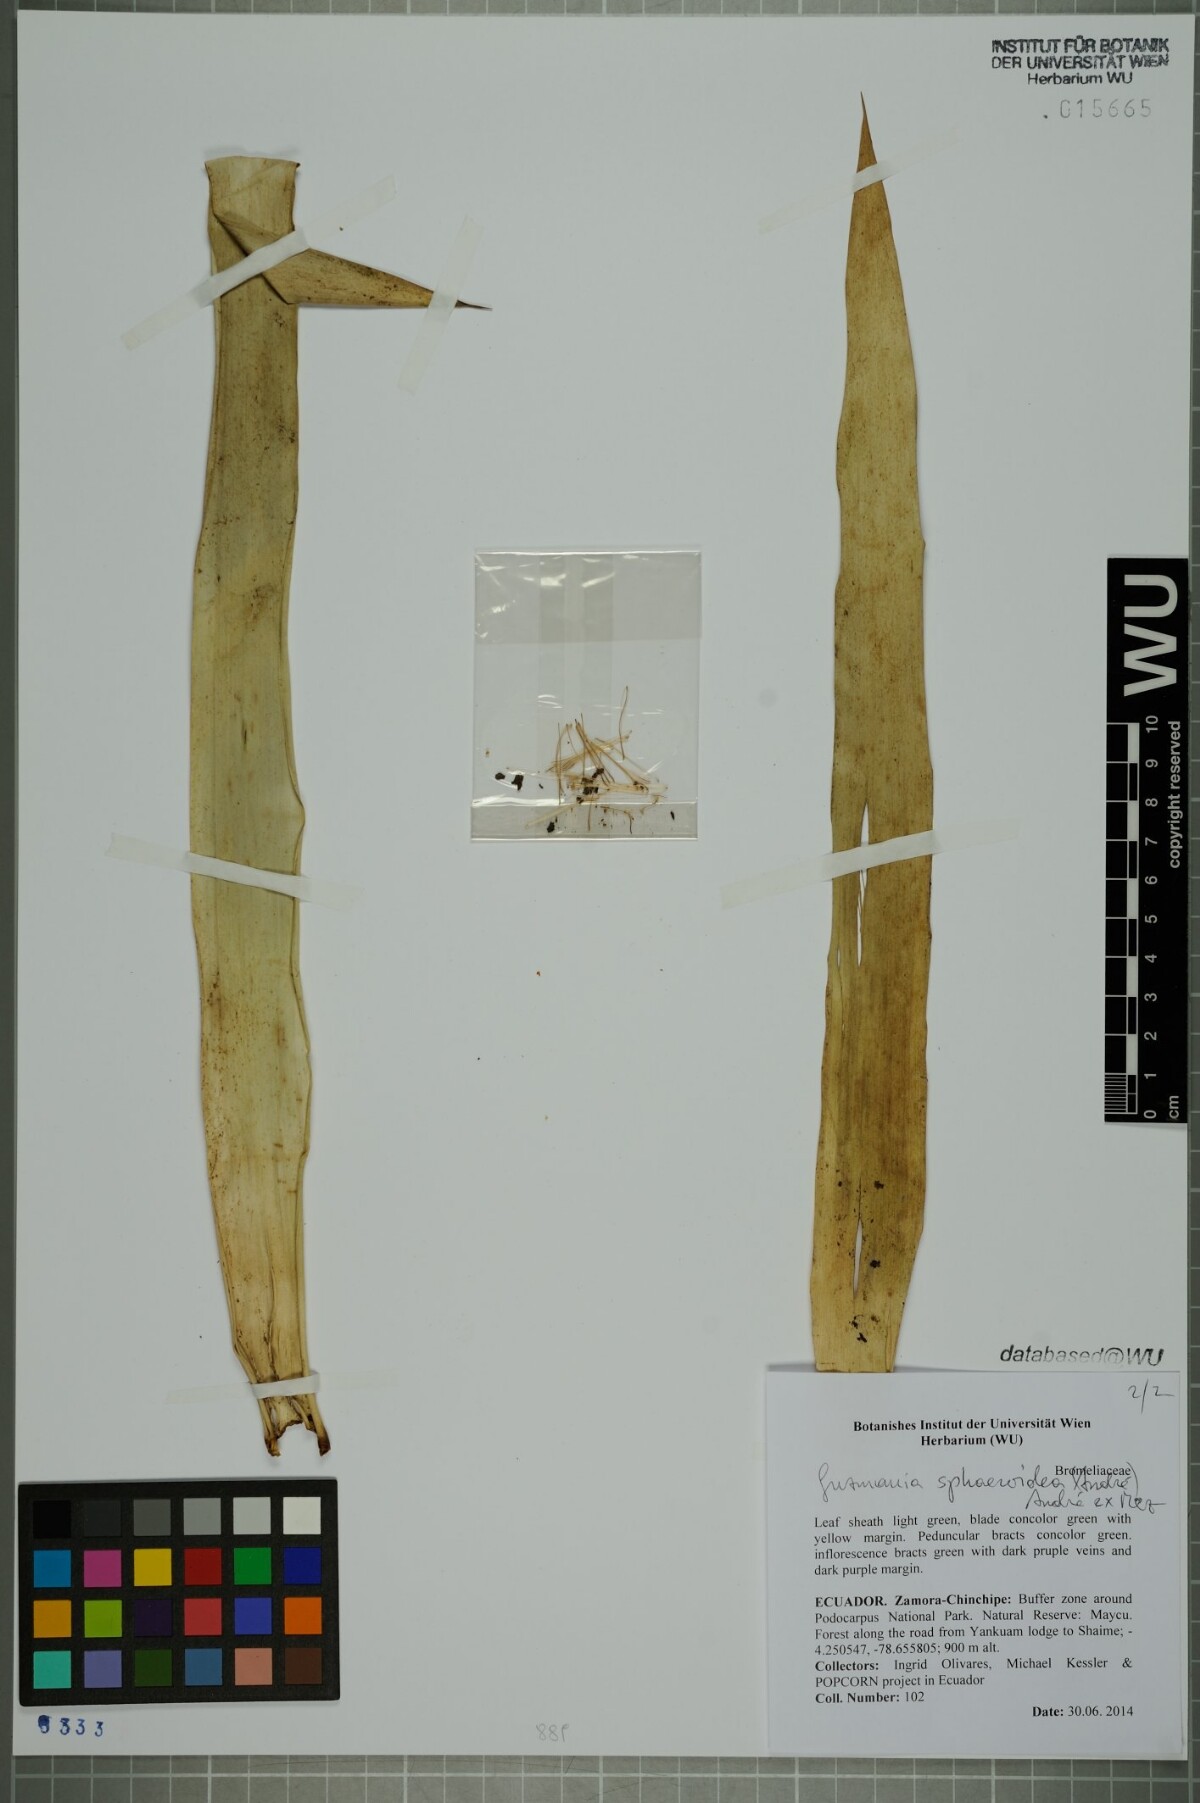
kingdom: Plantae
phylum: Tracheophyta
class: Liliopsida
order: Poales
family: Bromeliaceae
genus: Guzmania
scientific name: Guzmania sphaeroidea
